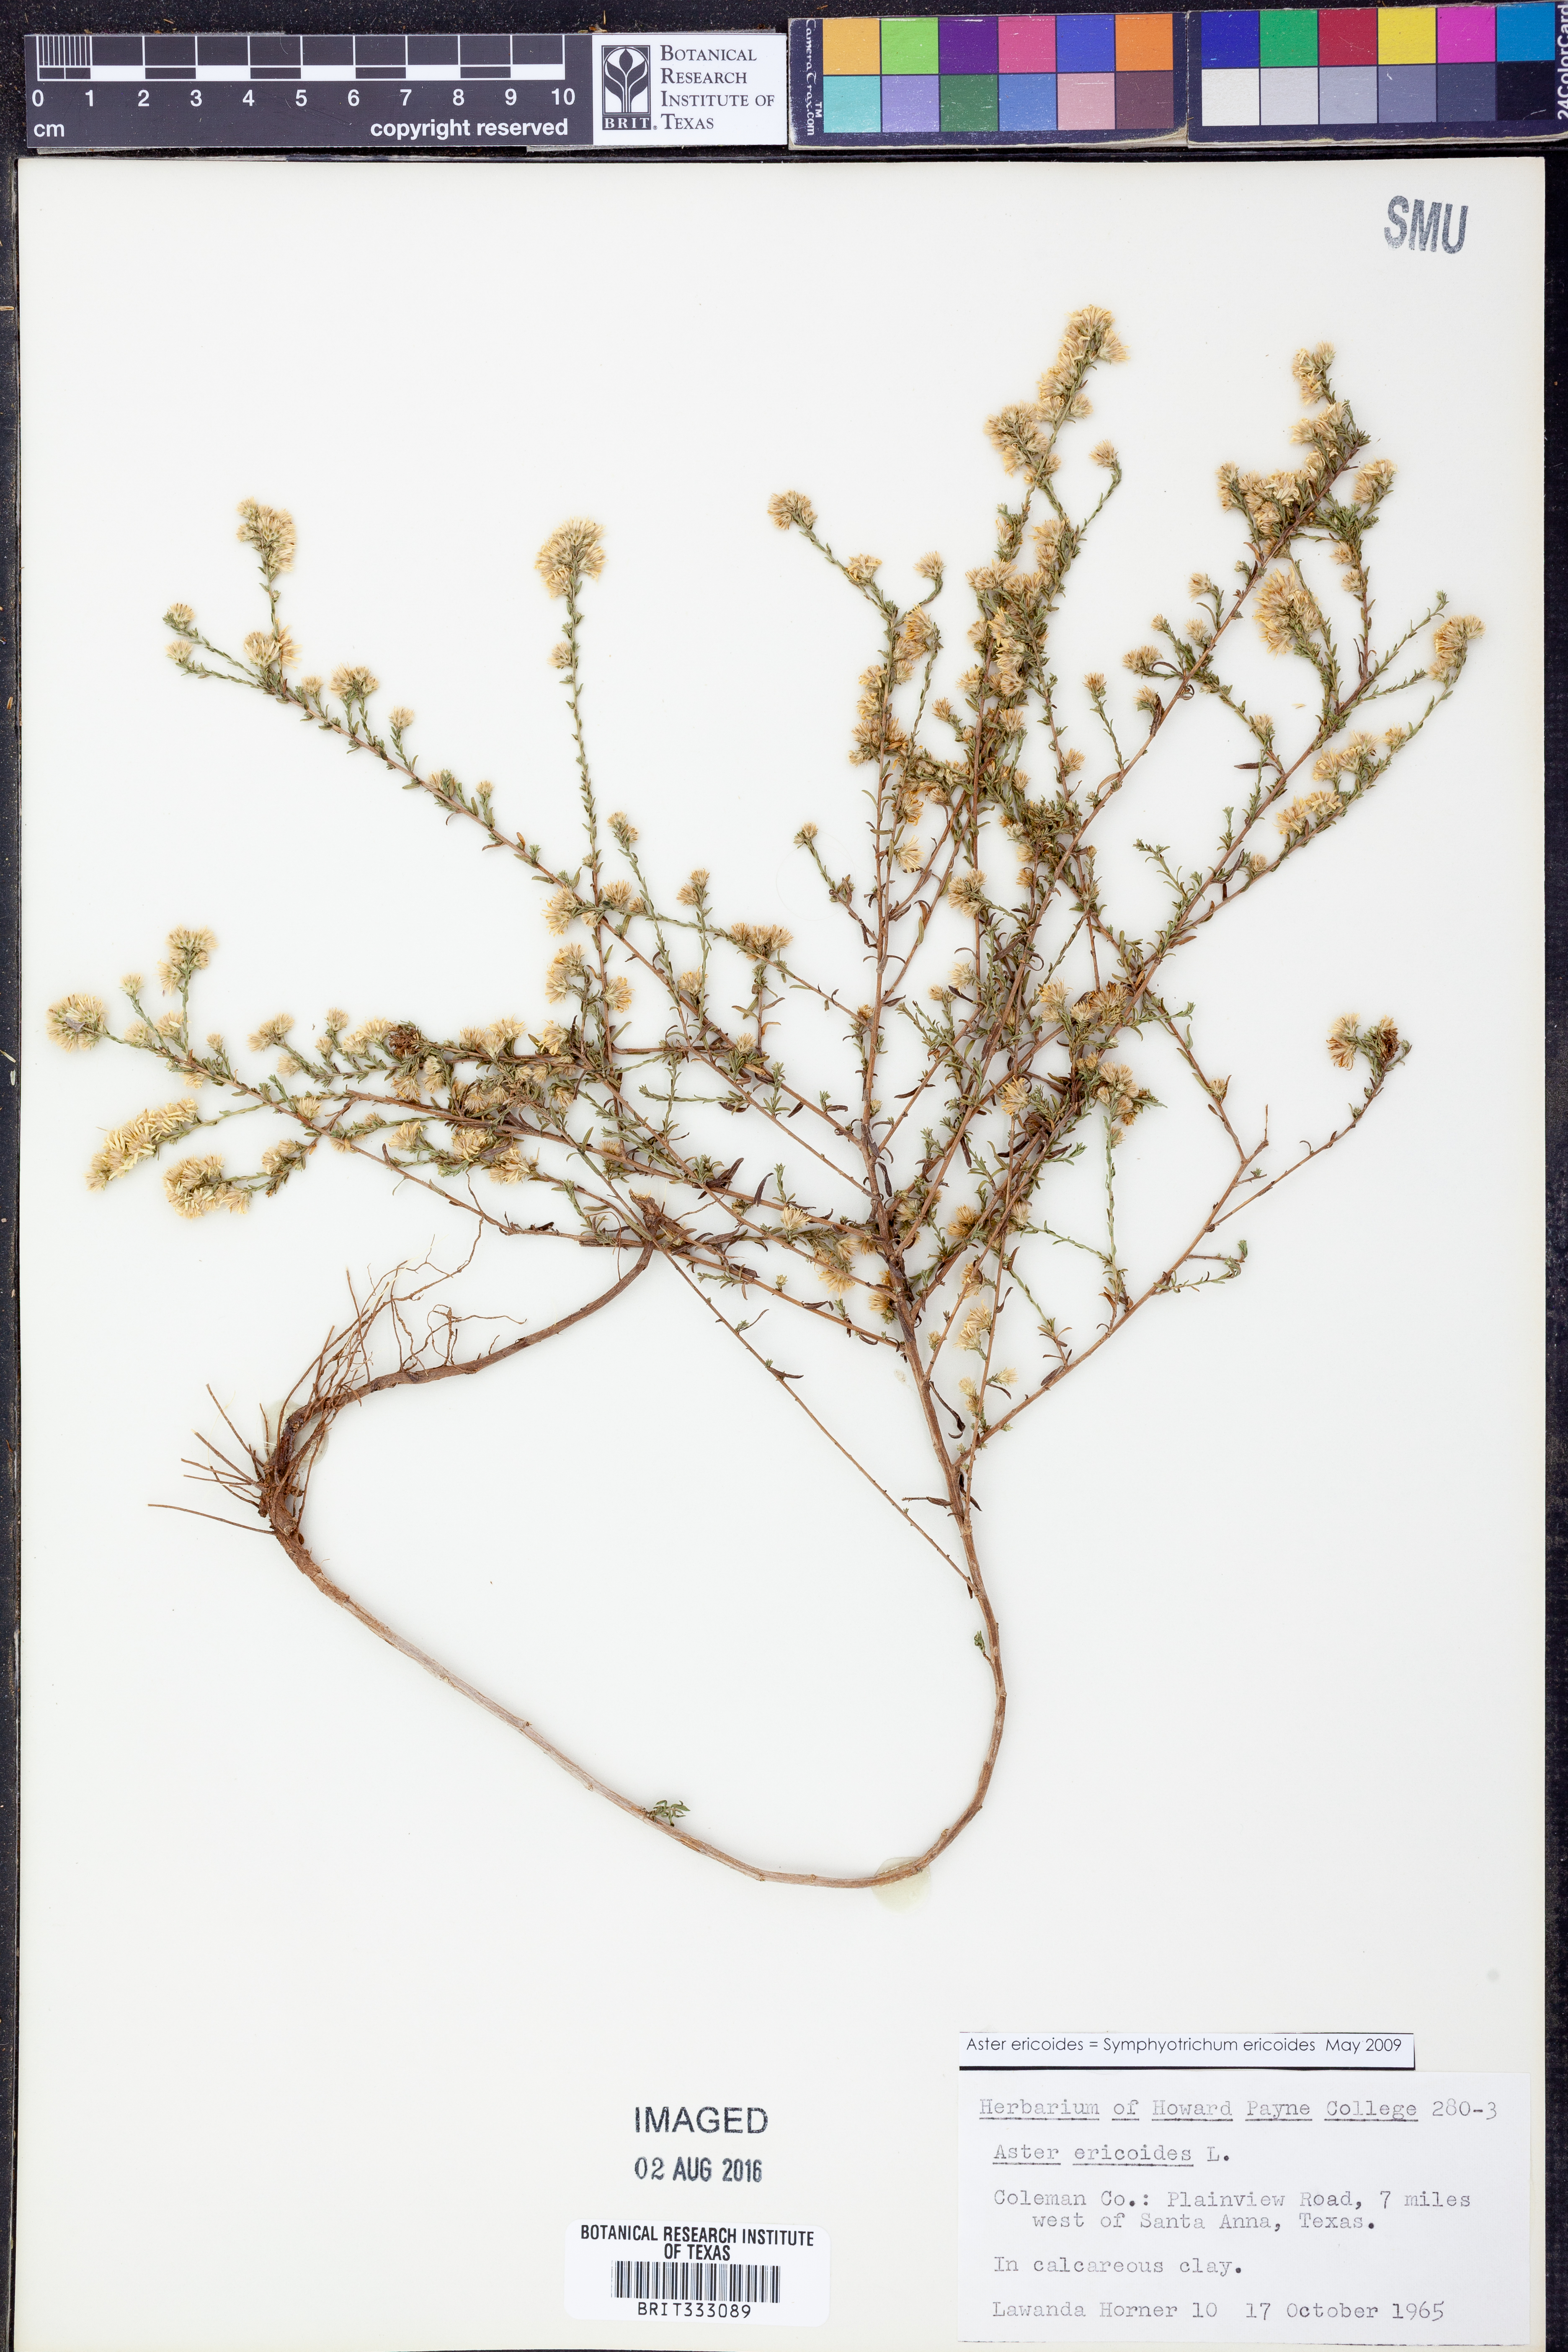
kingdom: Plantae
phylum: Tracheophyta
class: Magnoliopsida
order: Asterales
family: Asteraceae
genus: Symphyotrichum
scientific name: Symphyotrichum ericoides
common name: Heath aster
